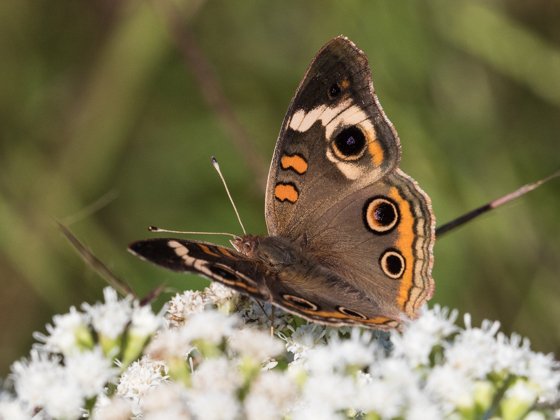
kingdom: Animalia
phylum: Arthropoda
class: Insecta
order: Lepidoptera
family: Nymphalidae
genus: Junonia
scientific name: Junonia coenia
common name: Common Buckeye
